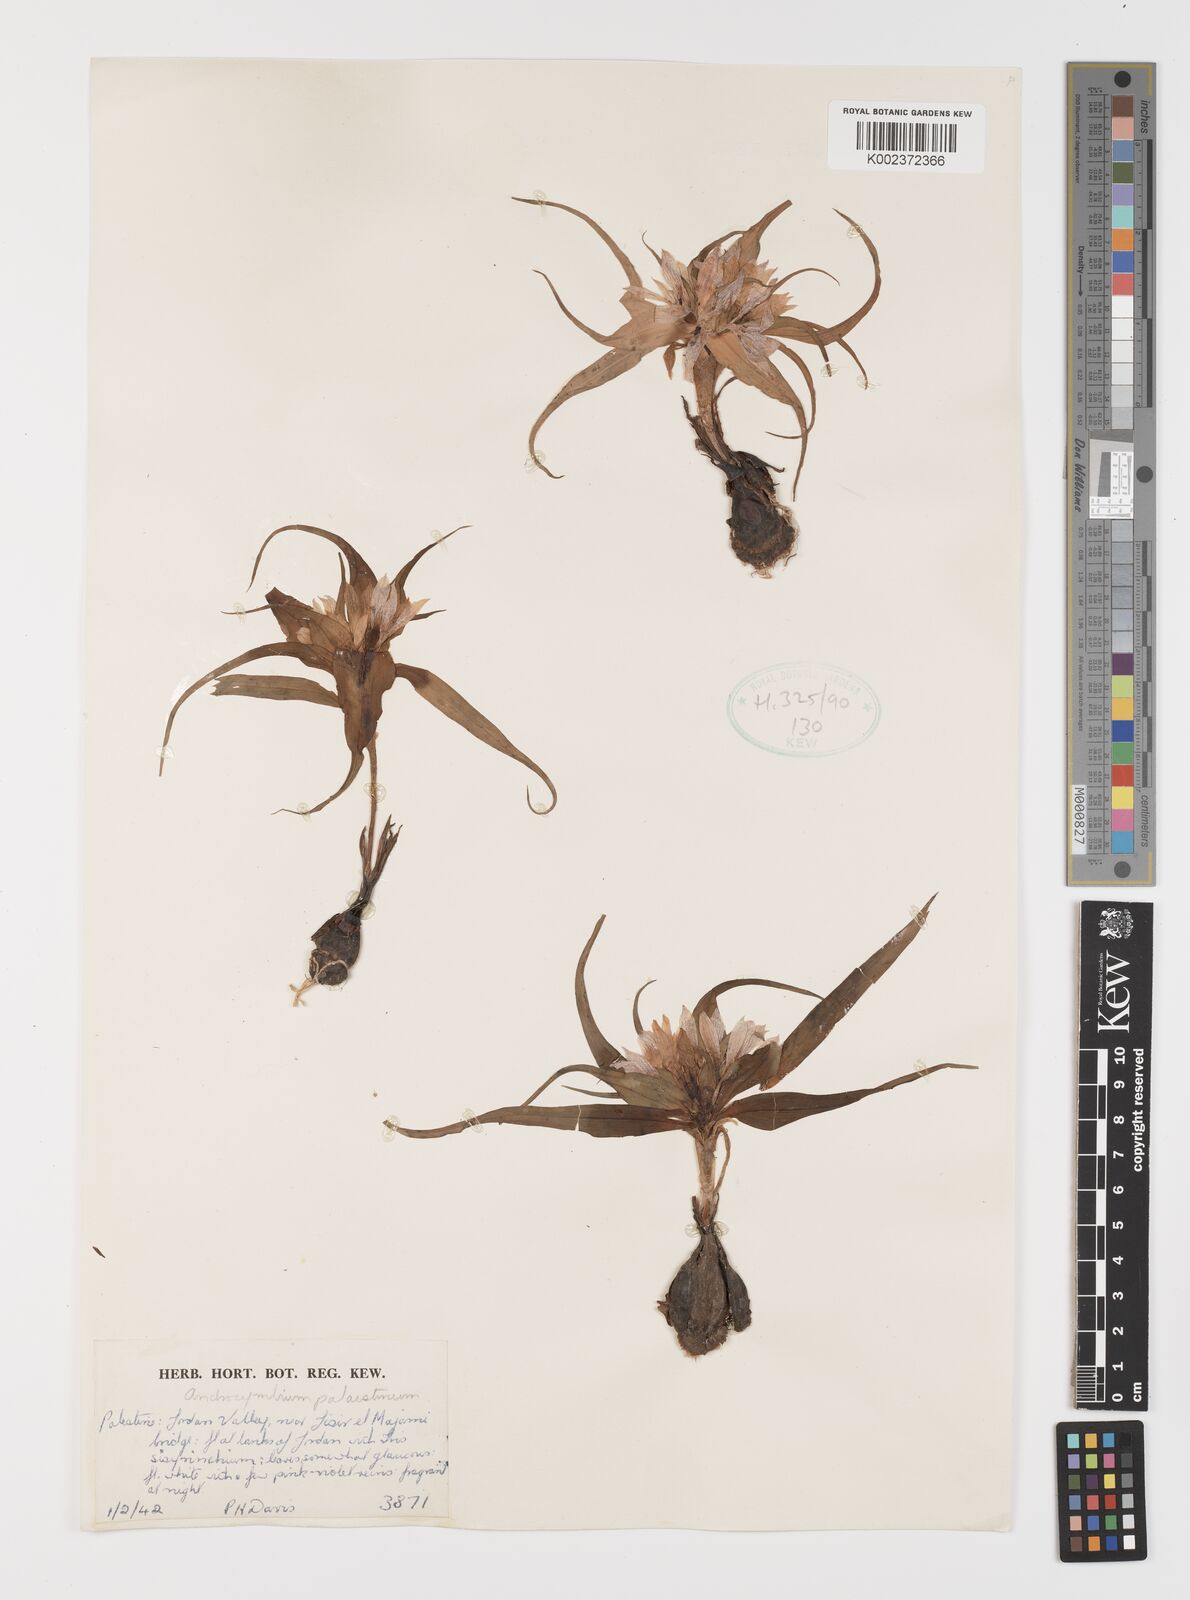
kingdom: Plantae
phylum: Tracheophyta
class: Liliopsida
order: Liliales
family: Colchicaceae
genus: Colchicum
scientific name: Colchicum palaestinum
